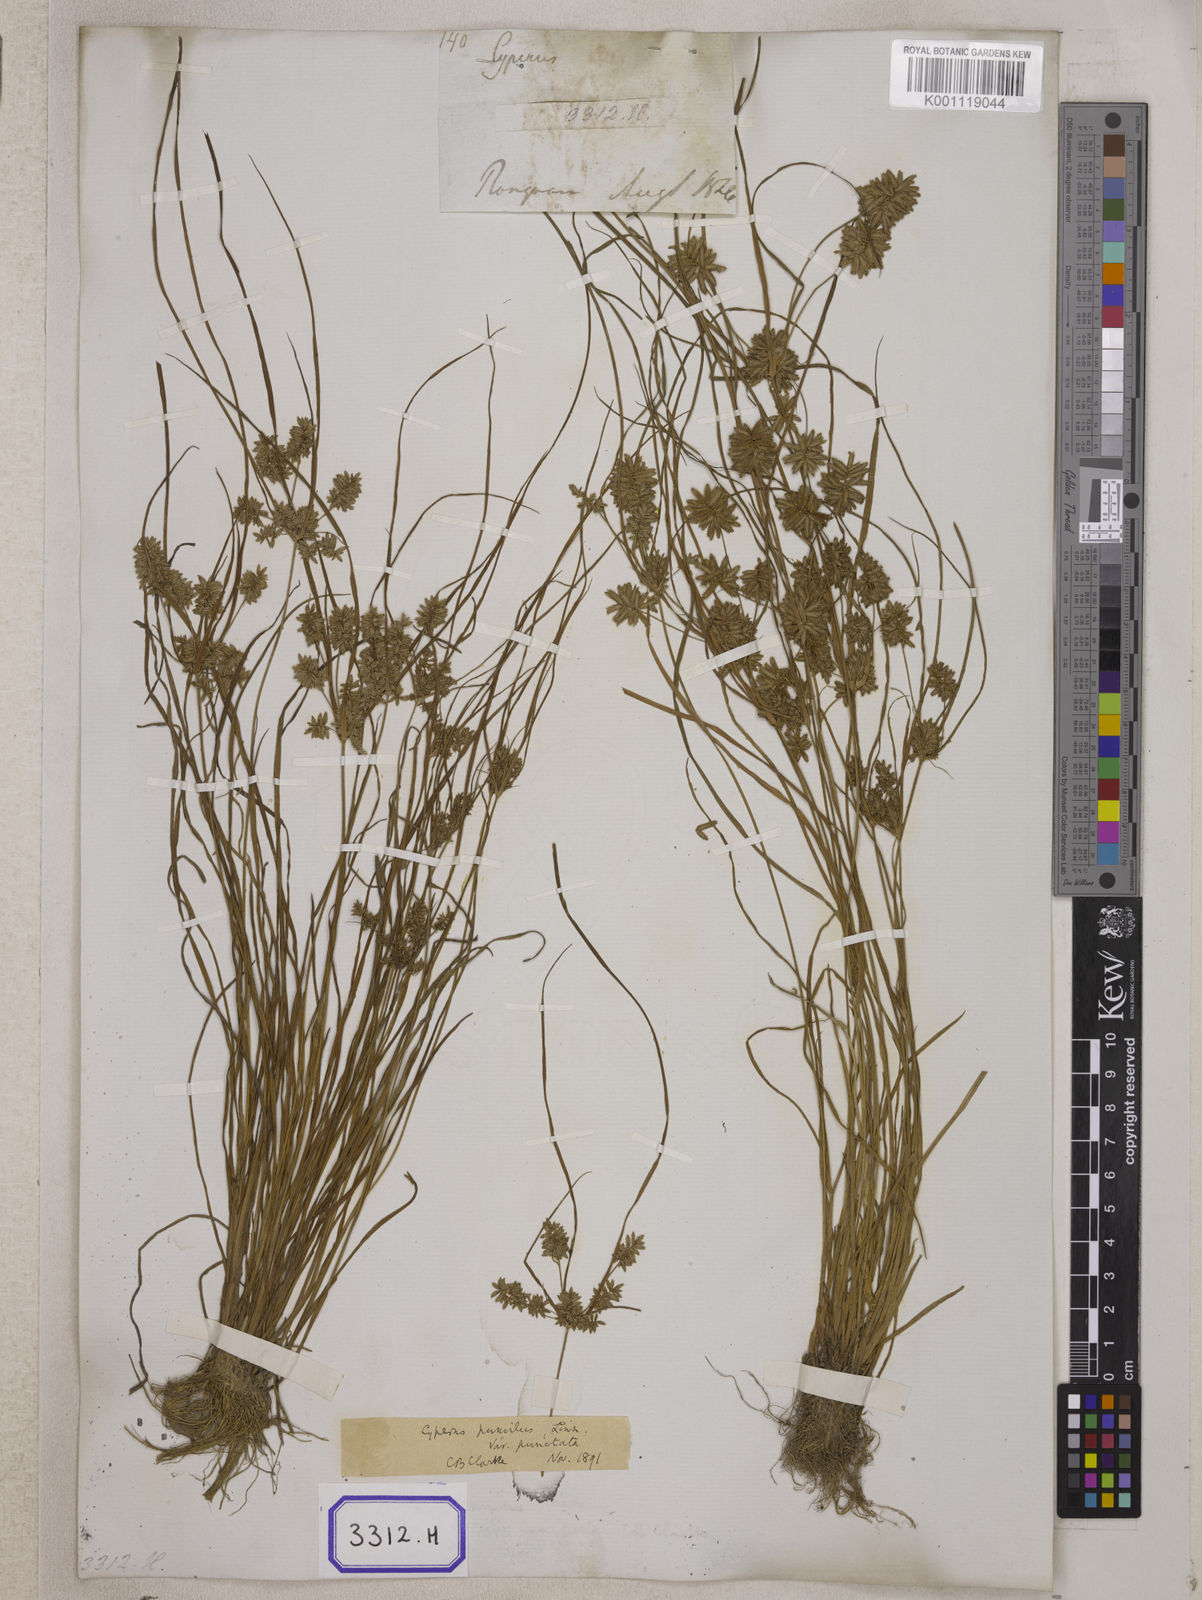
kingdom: Plantae
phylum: Tracheophyta
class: Liliopsida
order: Poales
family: Cyperaceae
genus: Cyperus
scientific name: Cyperus
